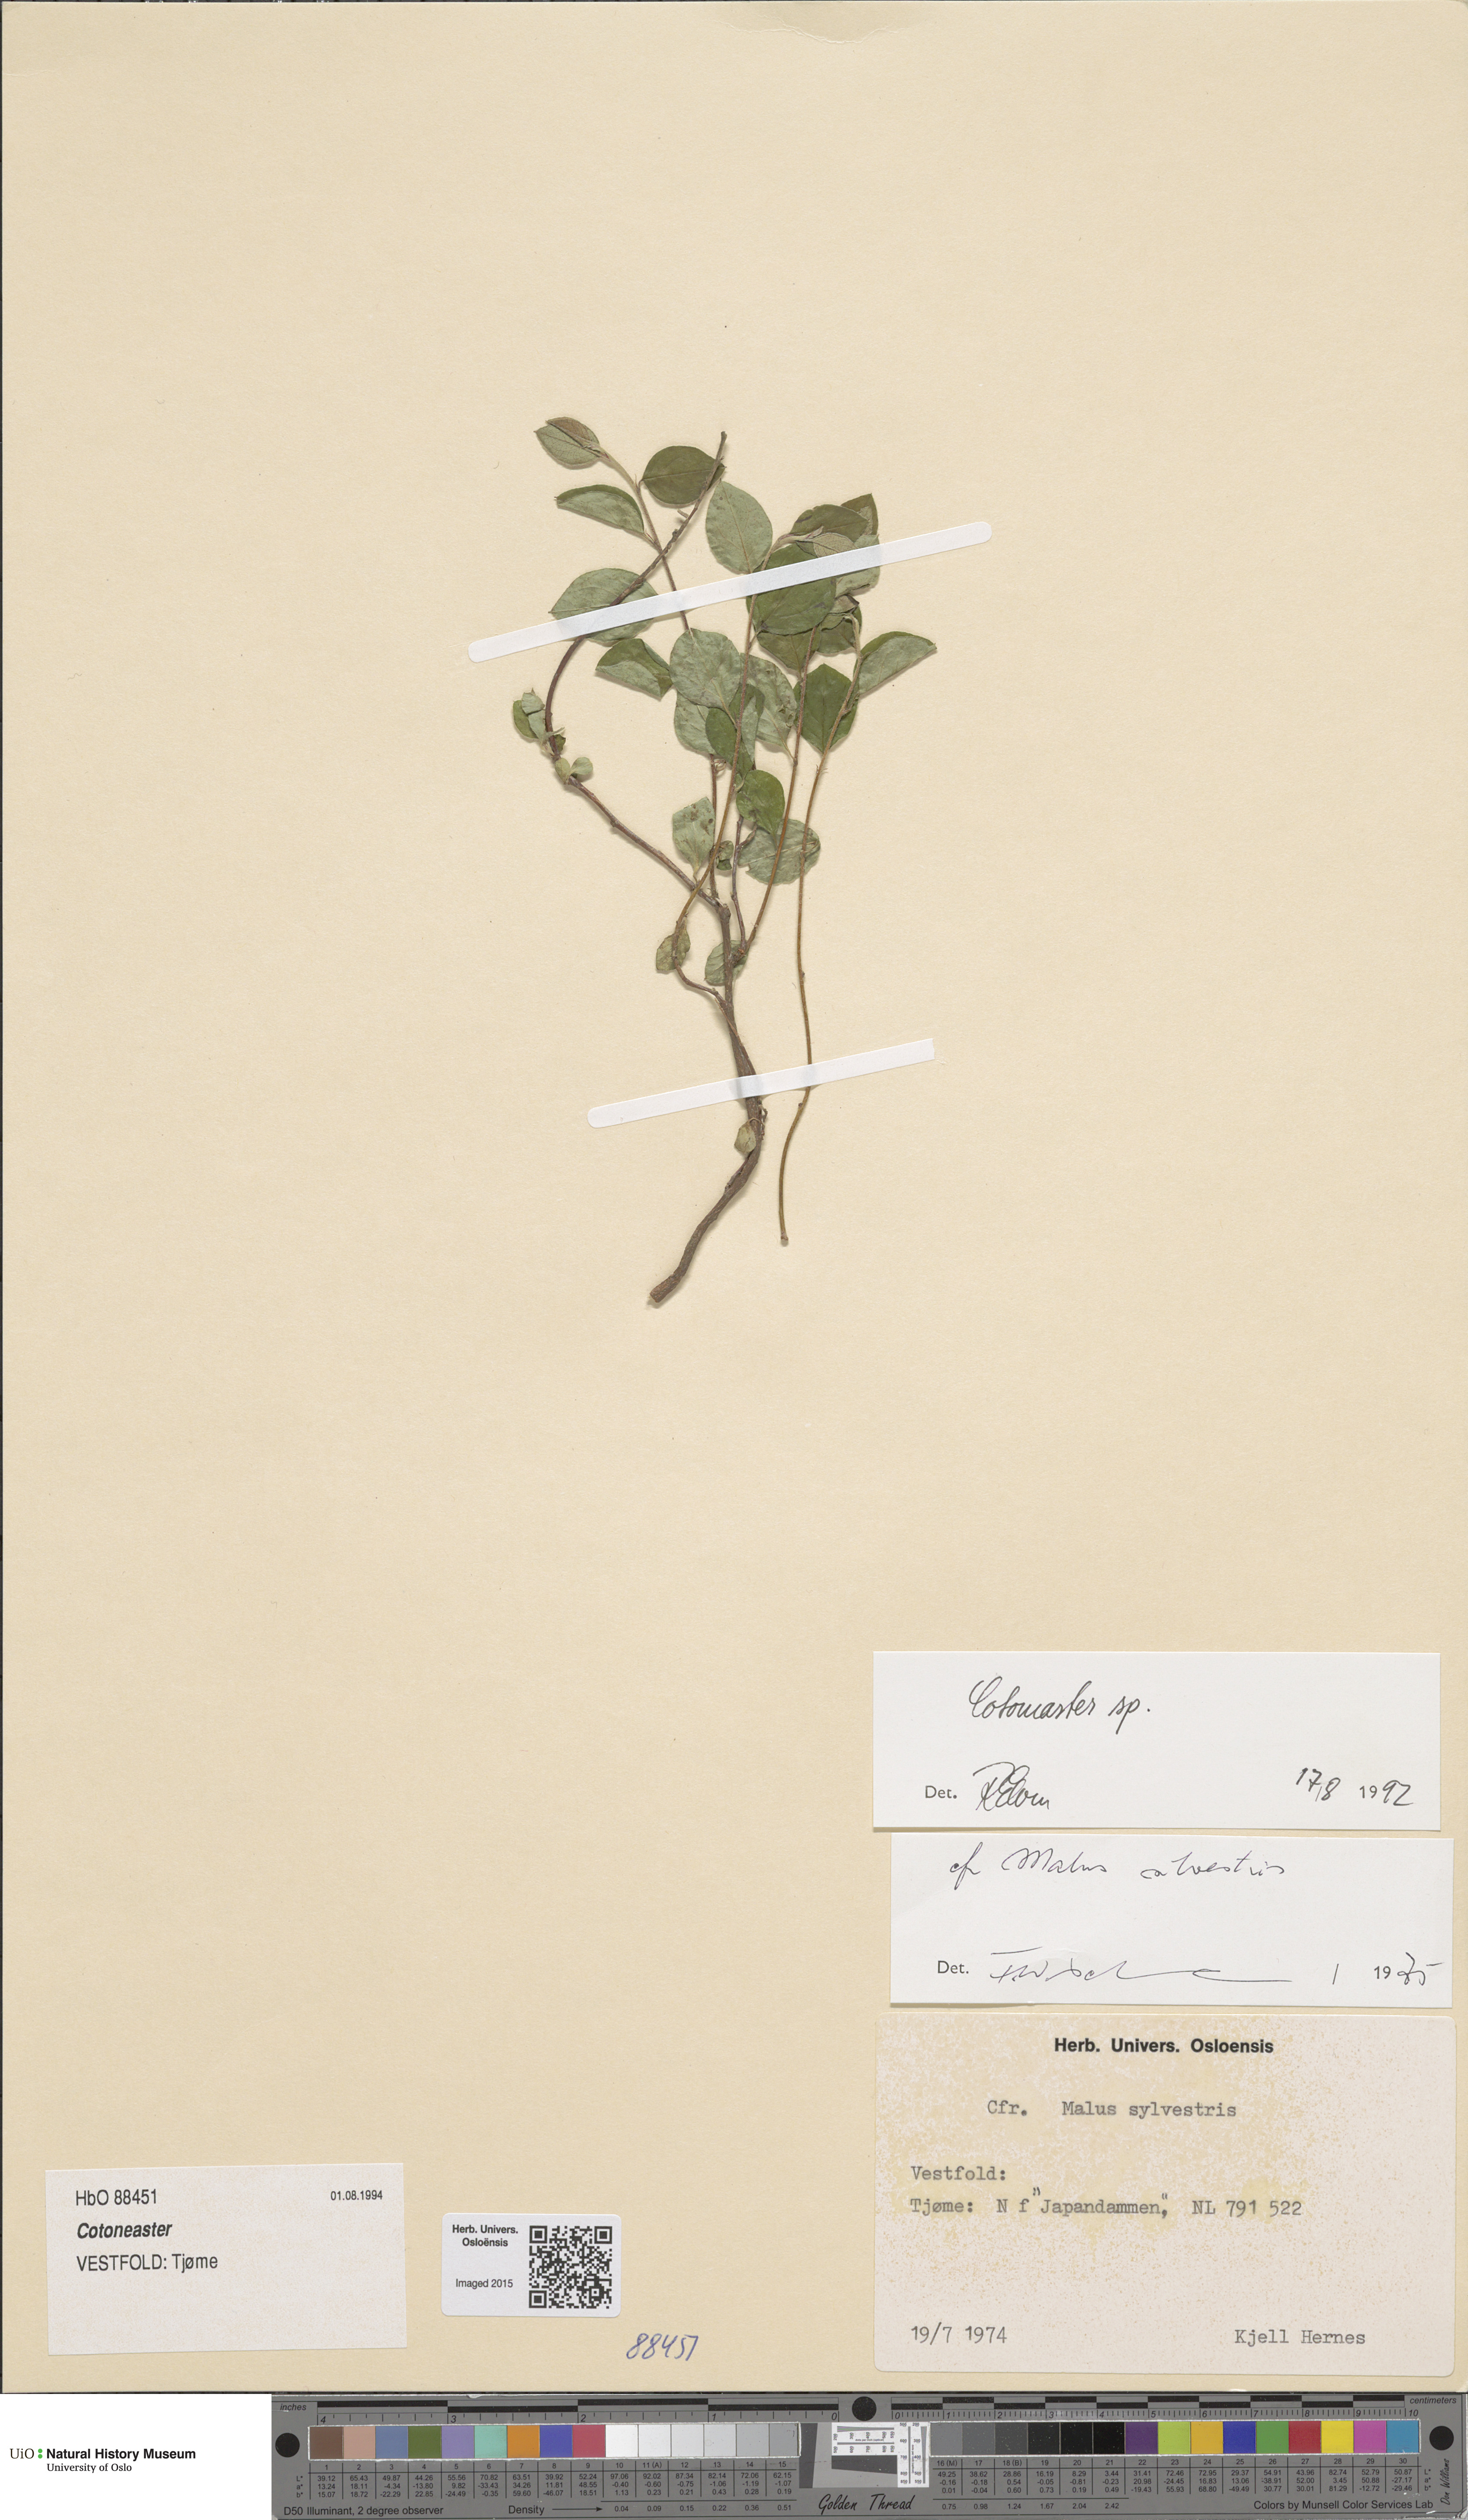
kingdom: Plantae
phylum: Tracheophyta
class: Magnoliopsida
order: Rosales
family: Rosaceae
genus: Cotoneaster
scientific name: Cotoneaster
